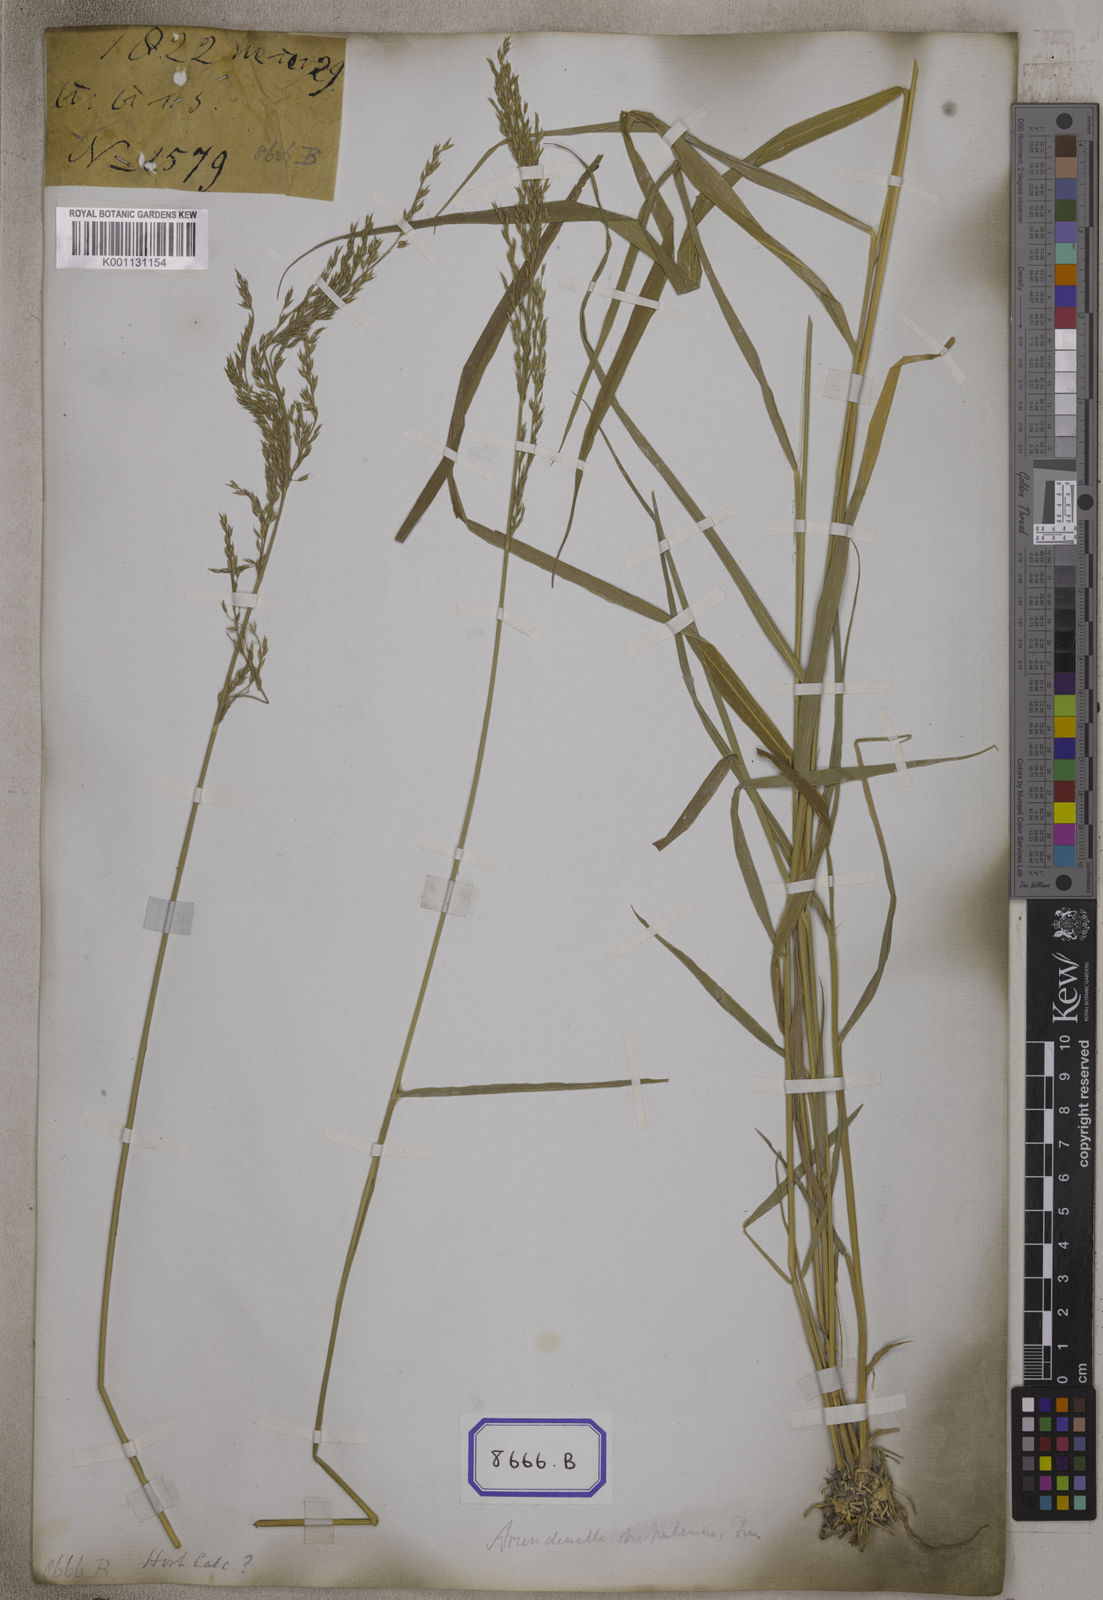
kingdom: Plantae
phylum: Tracheophyta
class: Liliopsida
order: Poales
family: Poaceae
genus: Arundinella
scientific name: Arundinella
